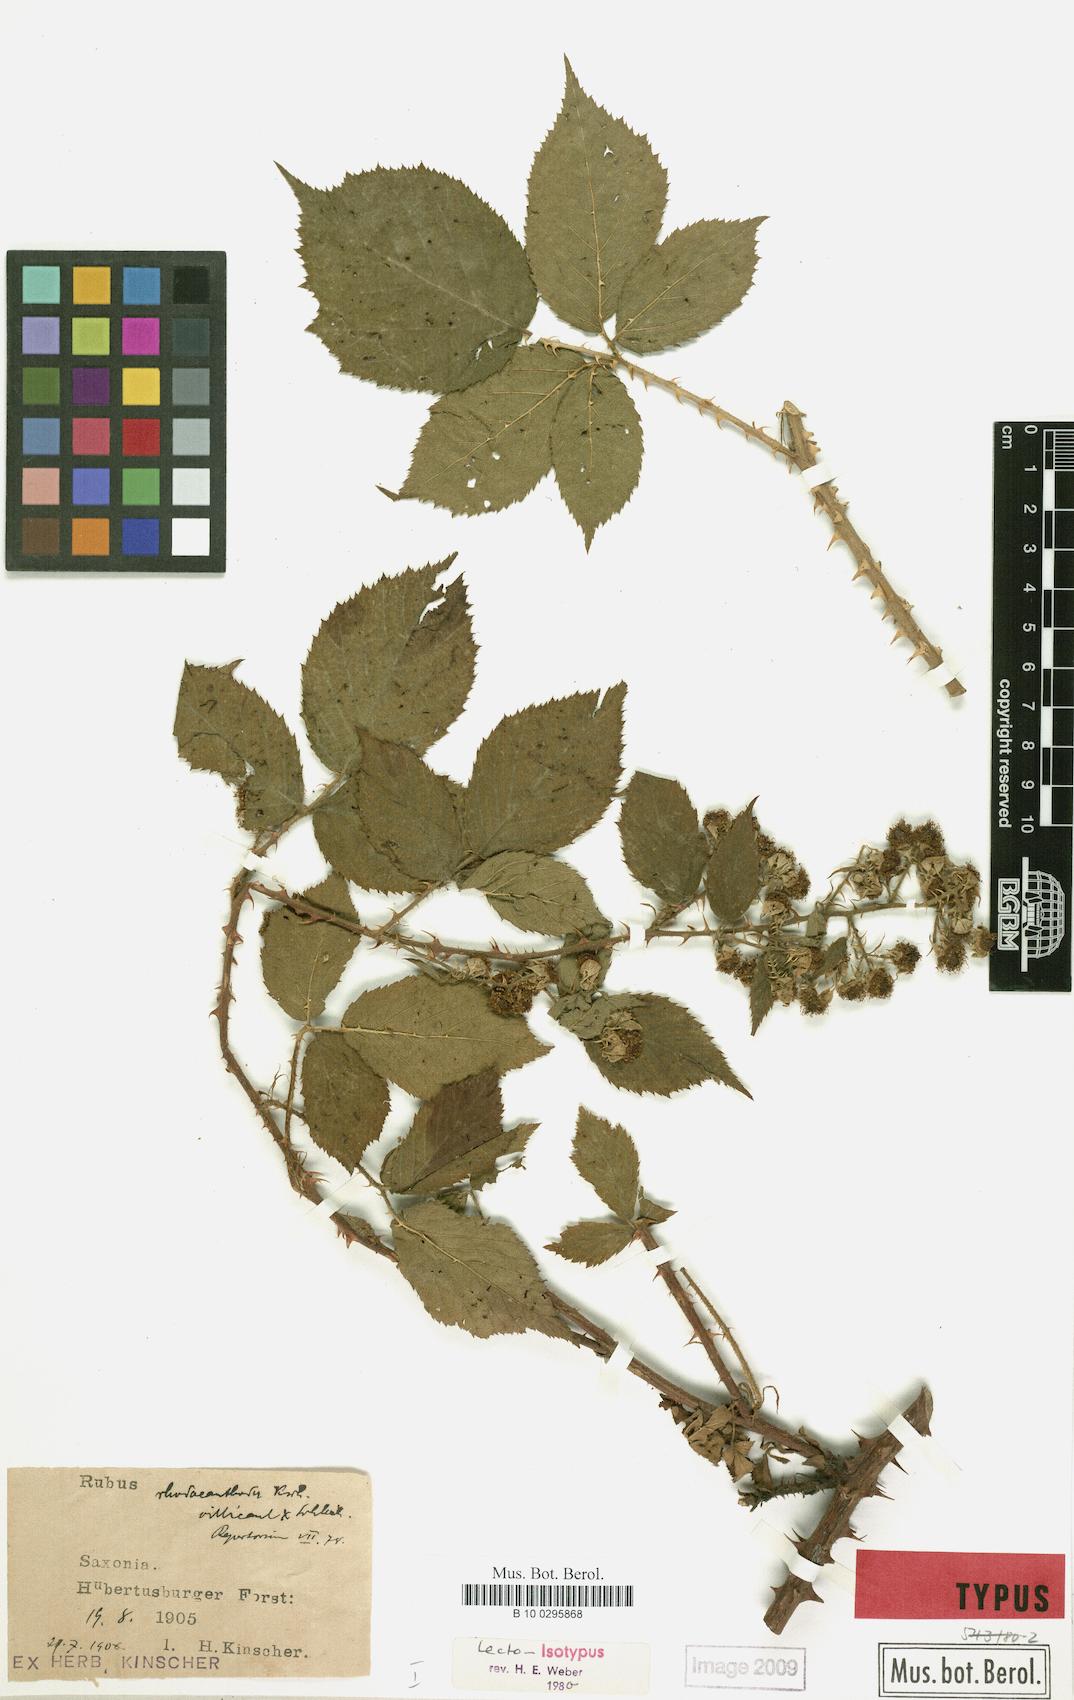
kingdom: Plantae
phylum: Tracheophyta
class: Magnoliopsida
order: Rosales
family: Rosaceae
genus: Rubus
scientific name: Rubus rhodacanthodes
